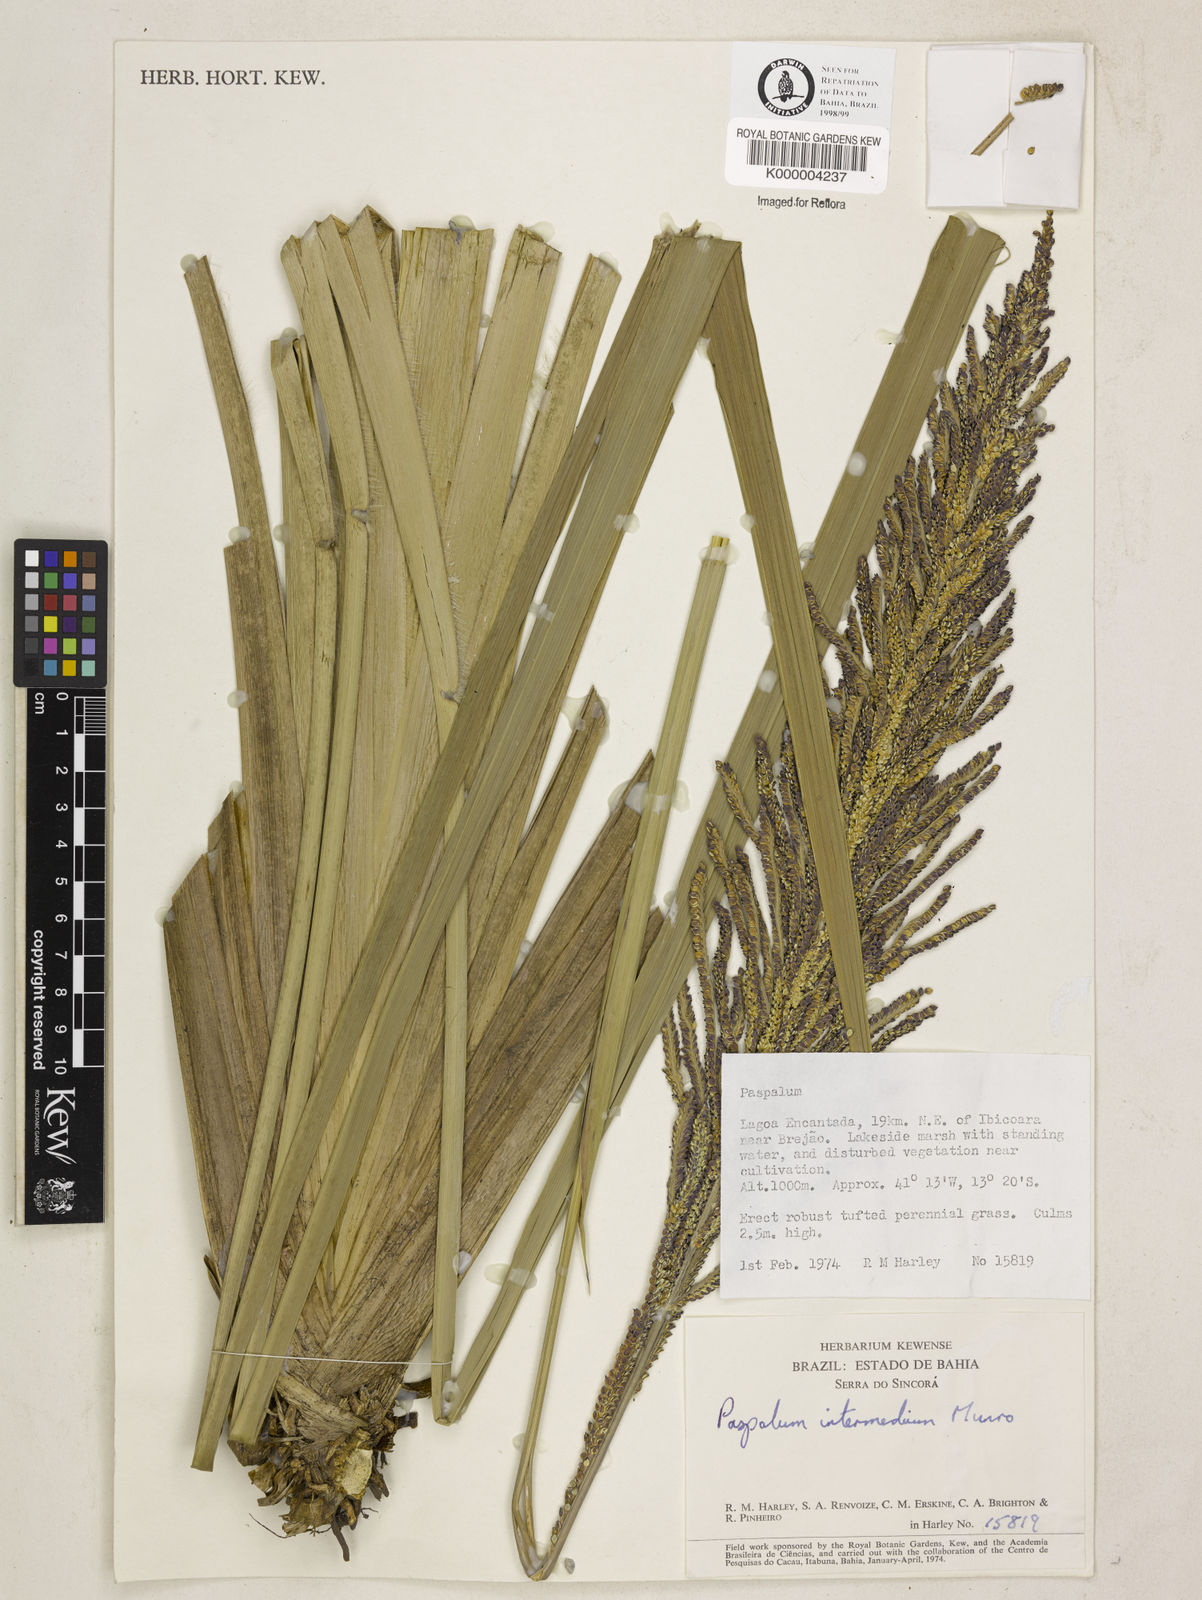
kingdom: Plantae
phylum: Tracheophyta
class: Liliopsida
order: Poales
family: Poaceae
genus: Paspalum
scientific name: Paspalum
